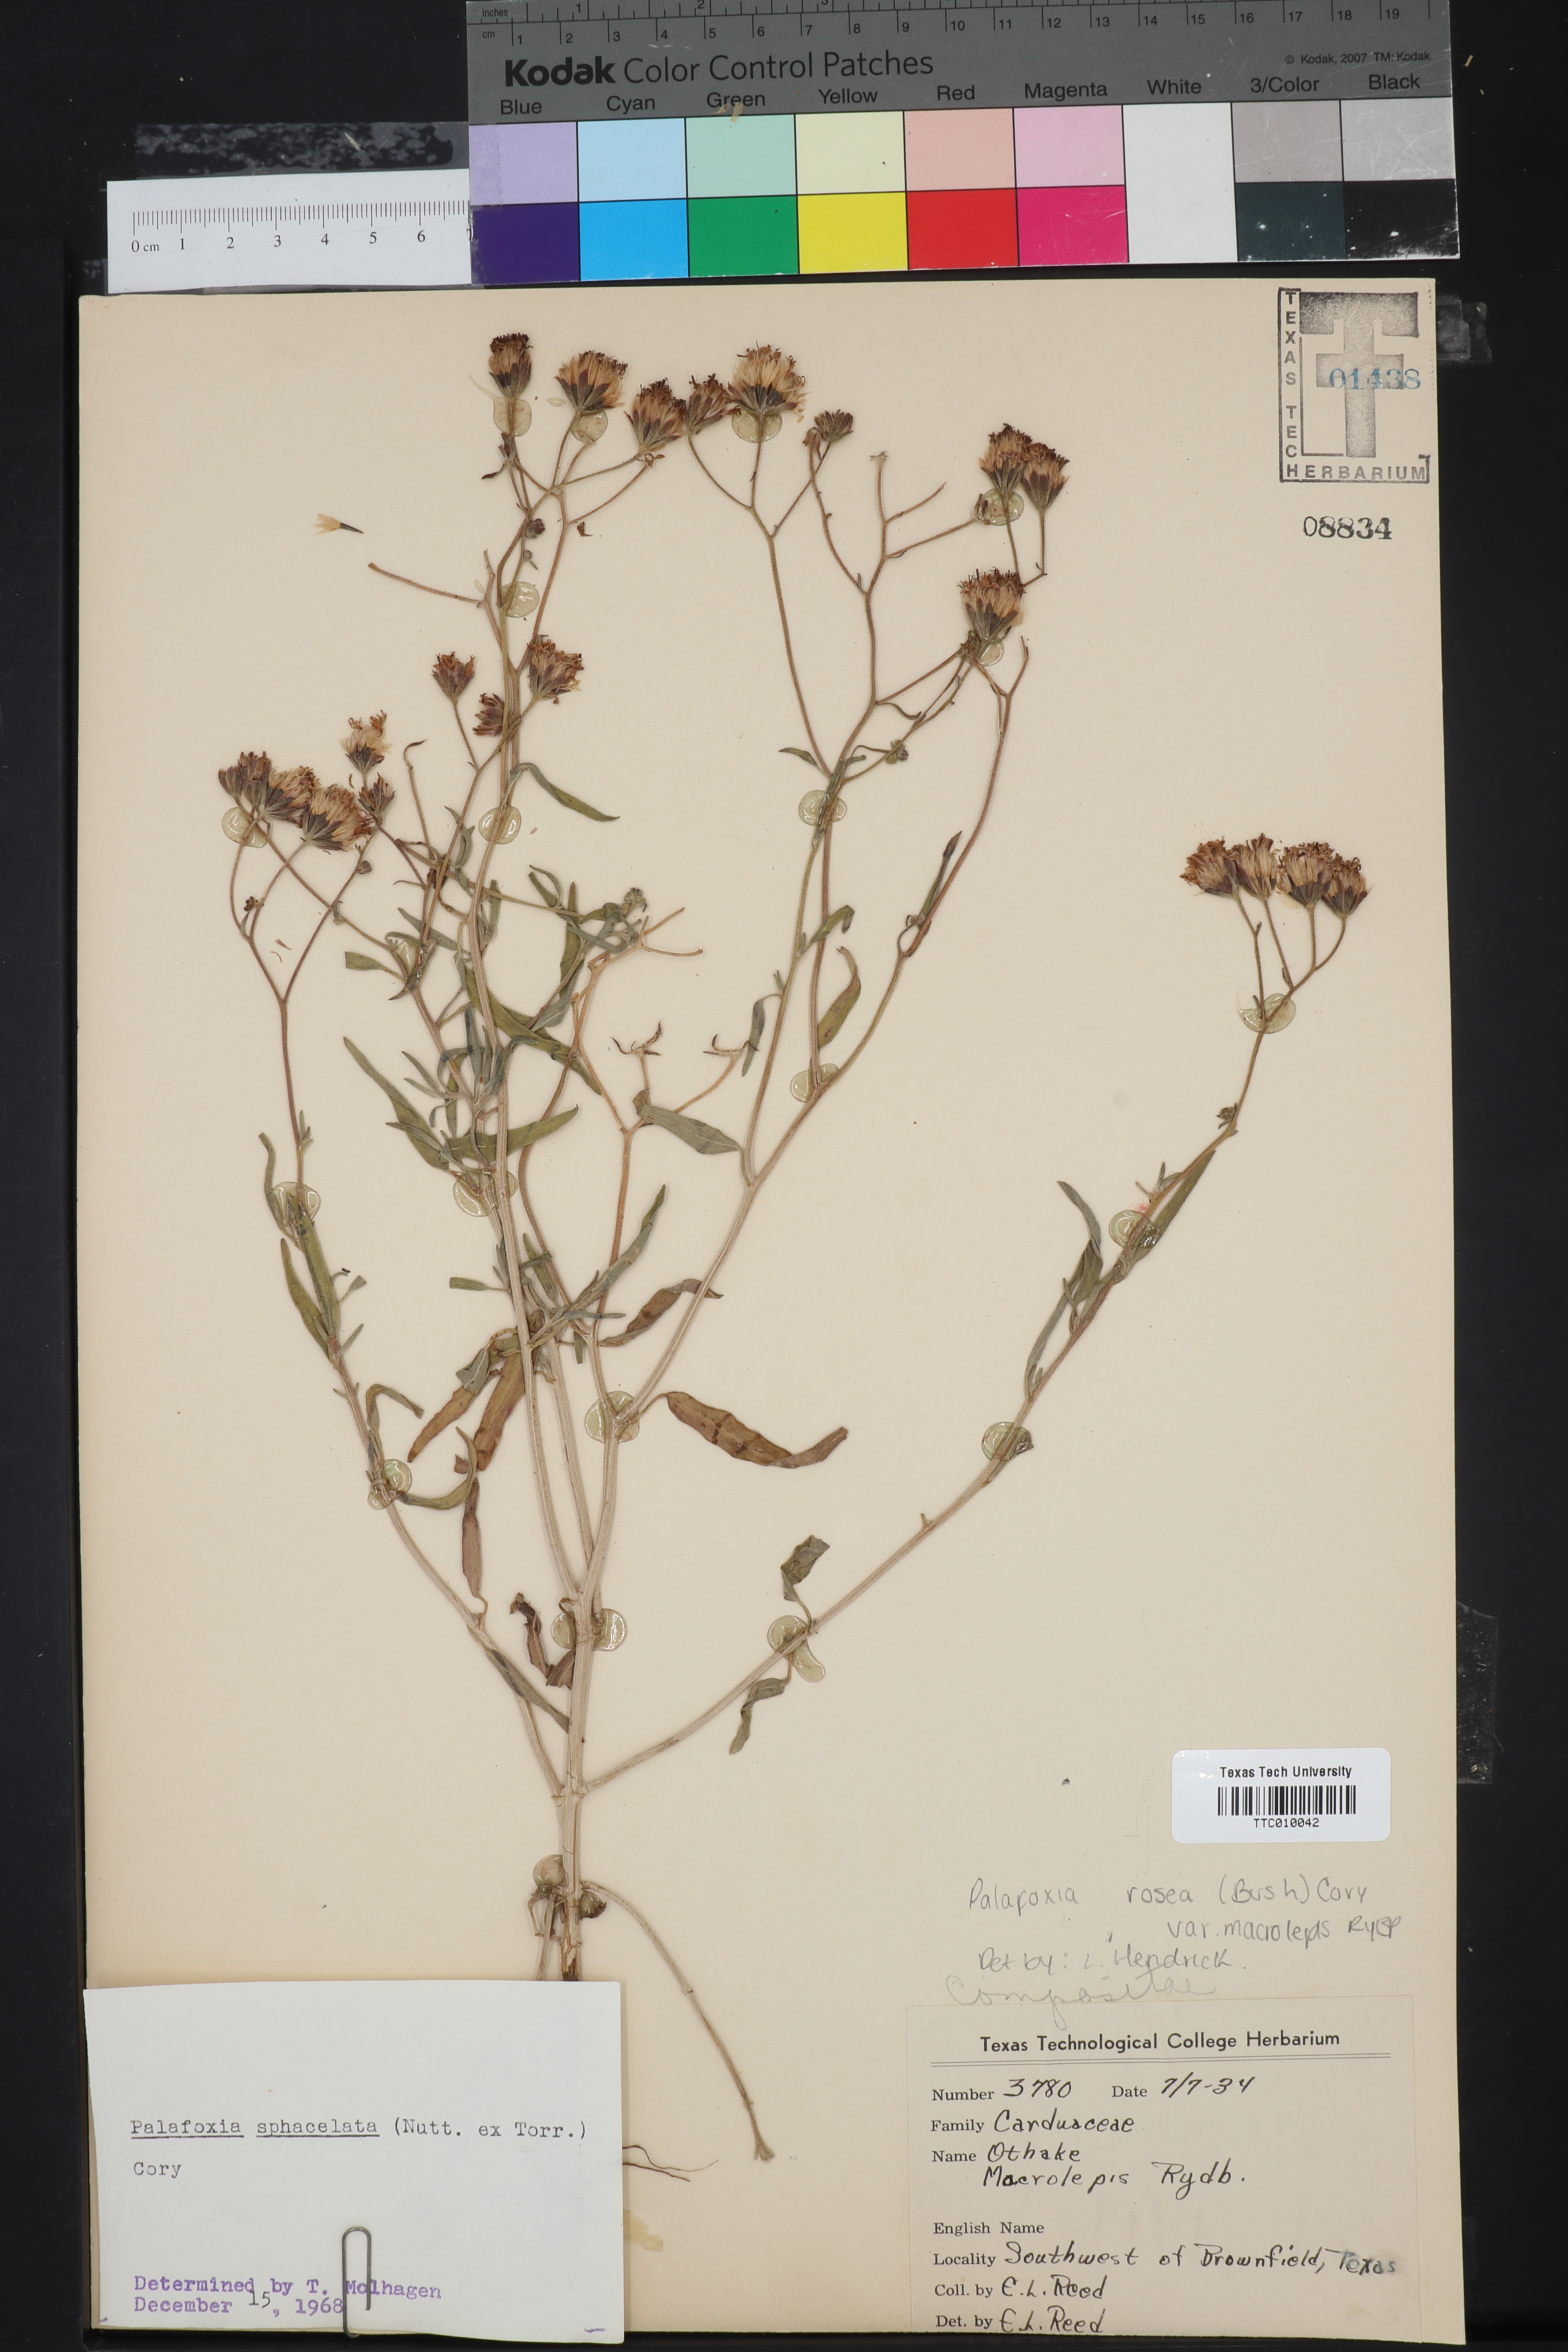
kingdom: Plantae
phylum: Tracheophyta
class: Magnoliopsida
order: Asterales
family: Asteraceae
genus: Palafoxia
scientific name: Palafoxia rosea
